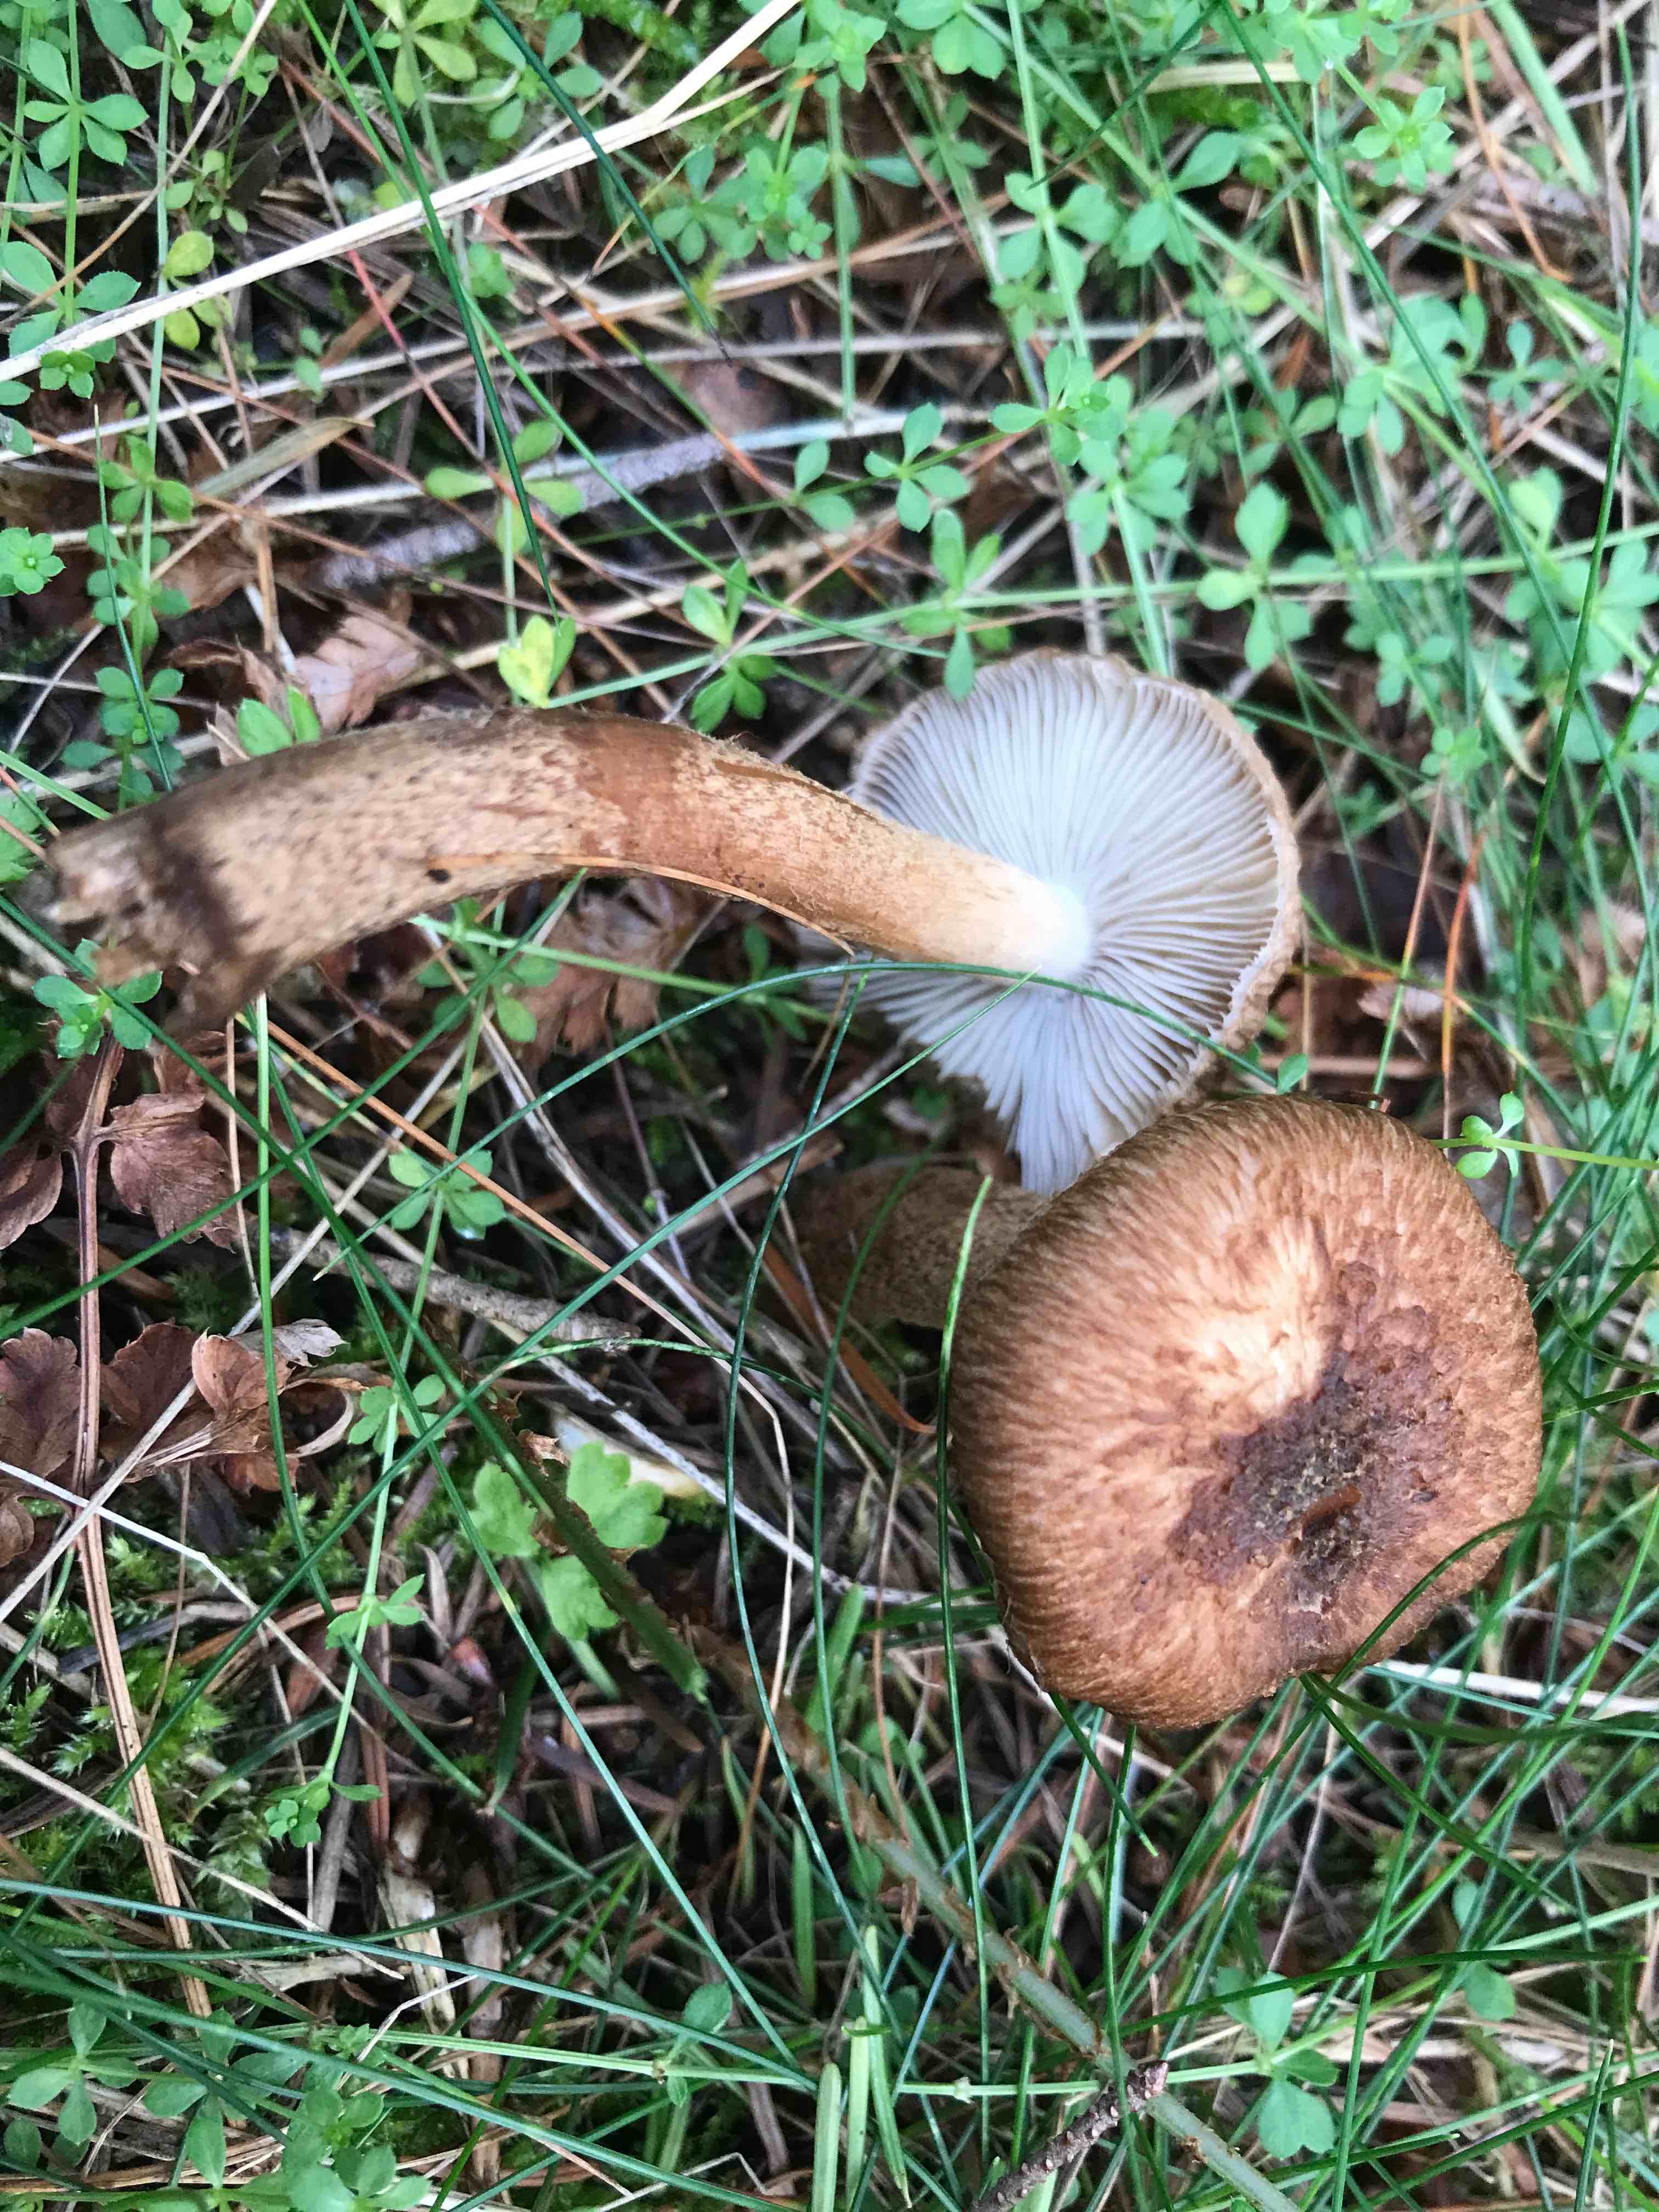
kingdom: Fungi
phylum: Basidiomycota
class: Agaricomycetes
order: Agaricales
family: Inocybaceae
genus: Inocybe
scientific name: Inocybe
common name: trævlhat
